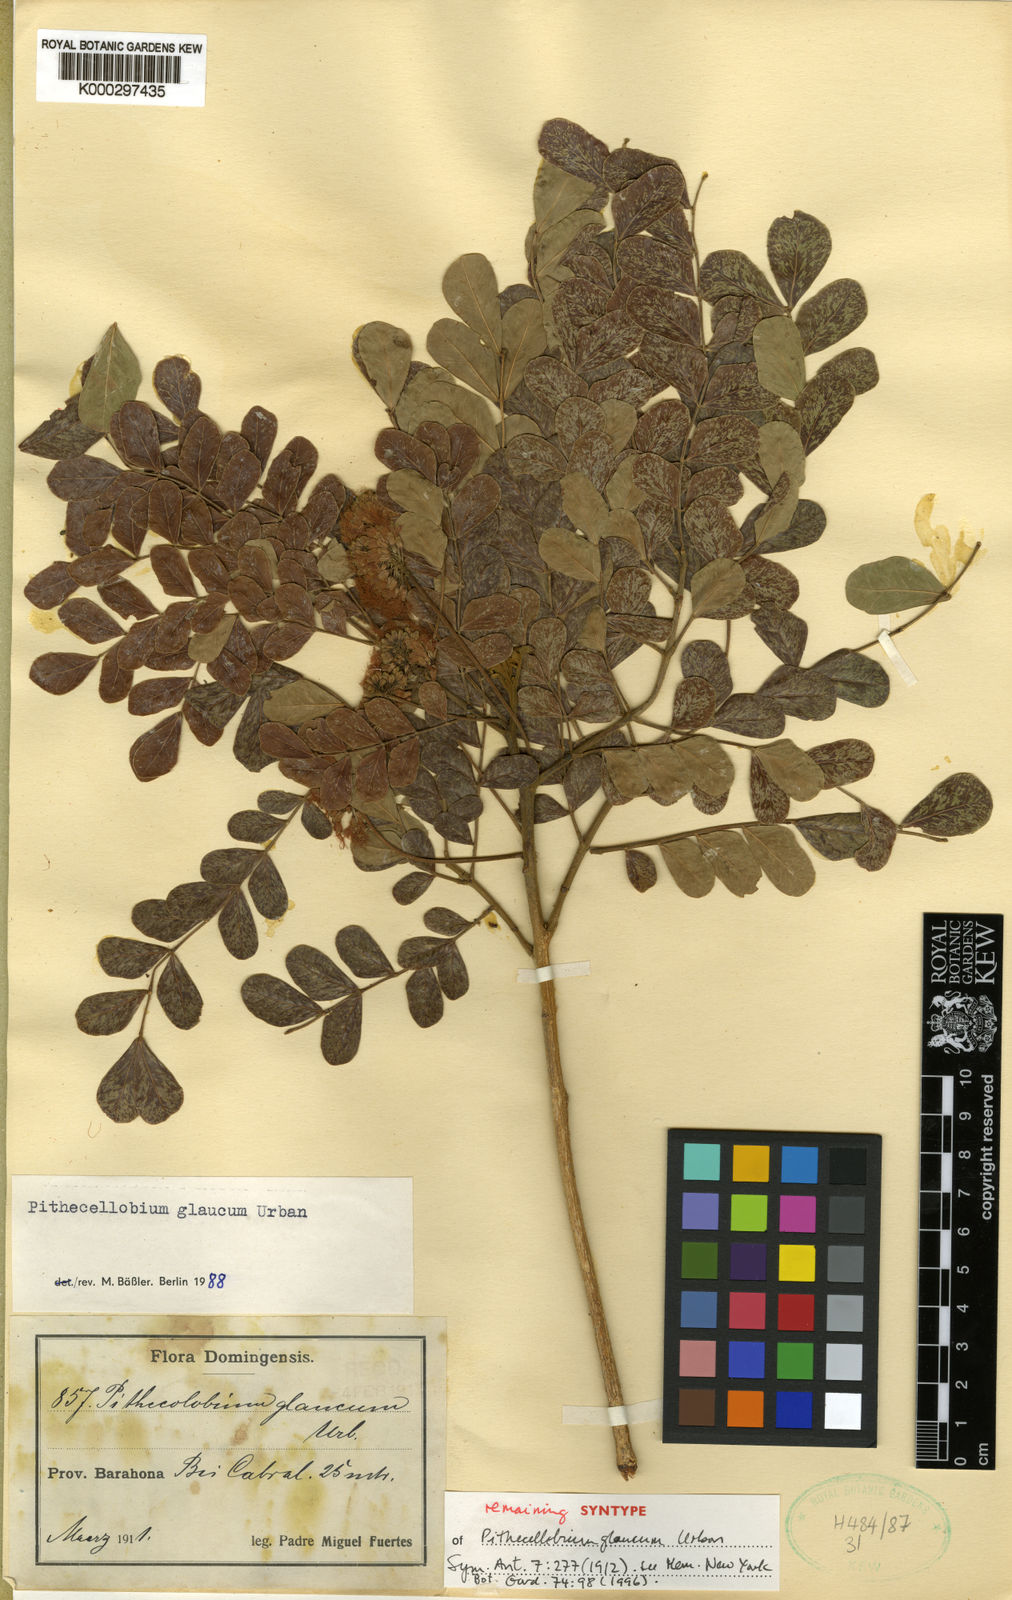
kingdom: Plantae
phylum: Tracheophyta
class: Magnoliopsida
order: Fabales
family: Fabaceae
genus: Jupunba
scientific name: Jupunba glauca
